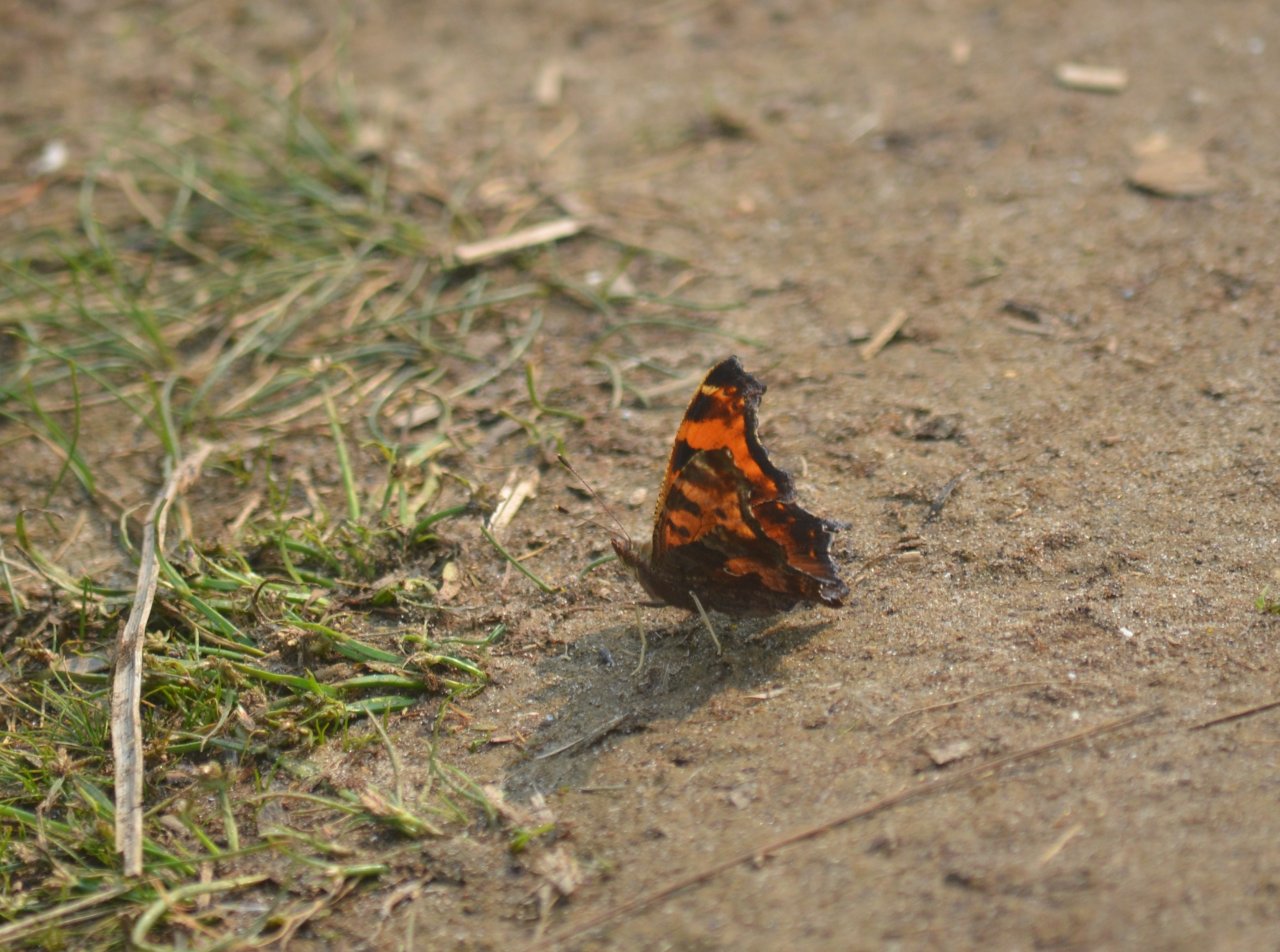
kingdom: Animalia
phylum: Arthropoda
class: Insecta
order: Lepidoptera
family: Nymphalidae
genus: Polygonia
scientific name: Polygonia comma
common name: Eastern Comma
